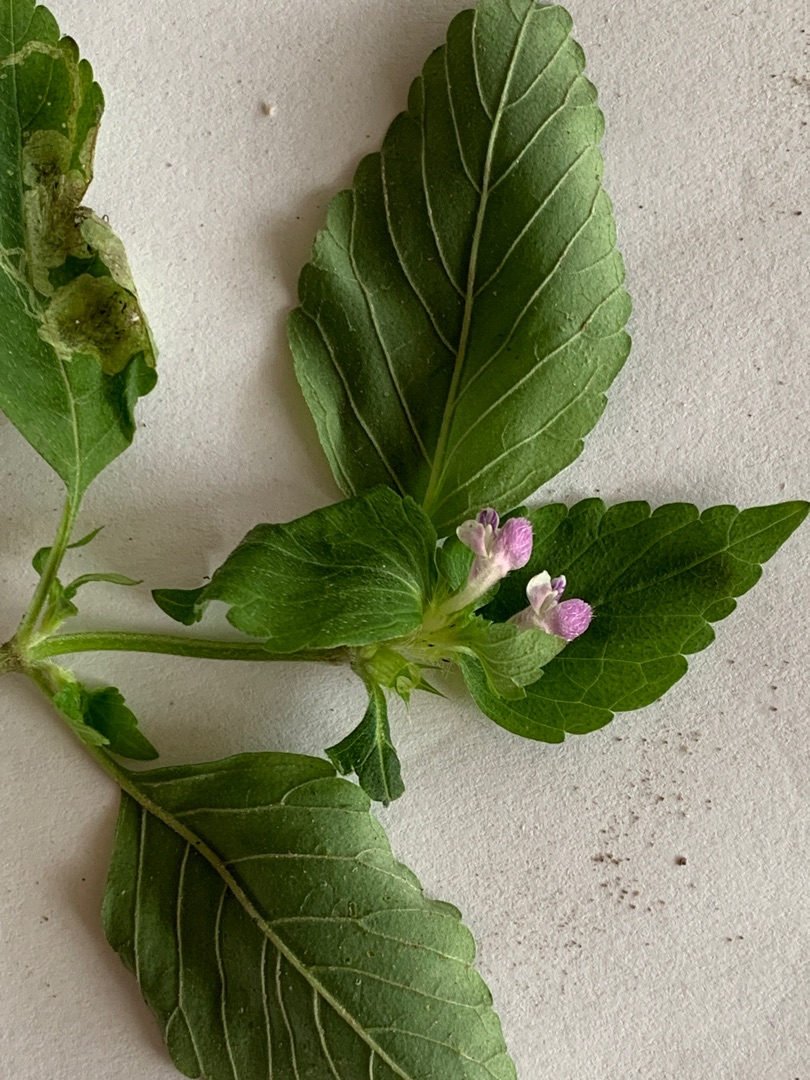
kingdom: Plantae
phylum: Tracheophyta
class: Magnoliopsida
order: Lamiales
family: Lamiaceae
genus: Galeopsis
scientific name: Galeopsis tetrahit
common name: Almindelig hanekro
